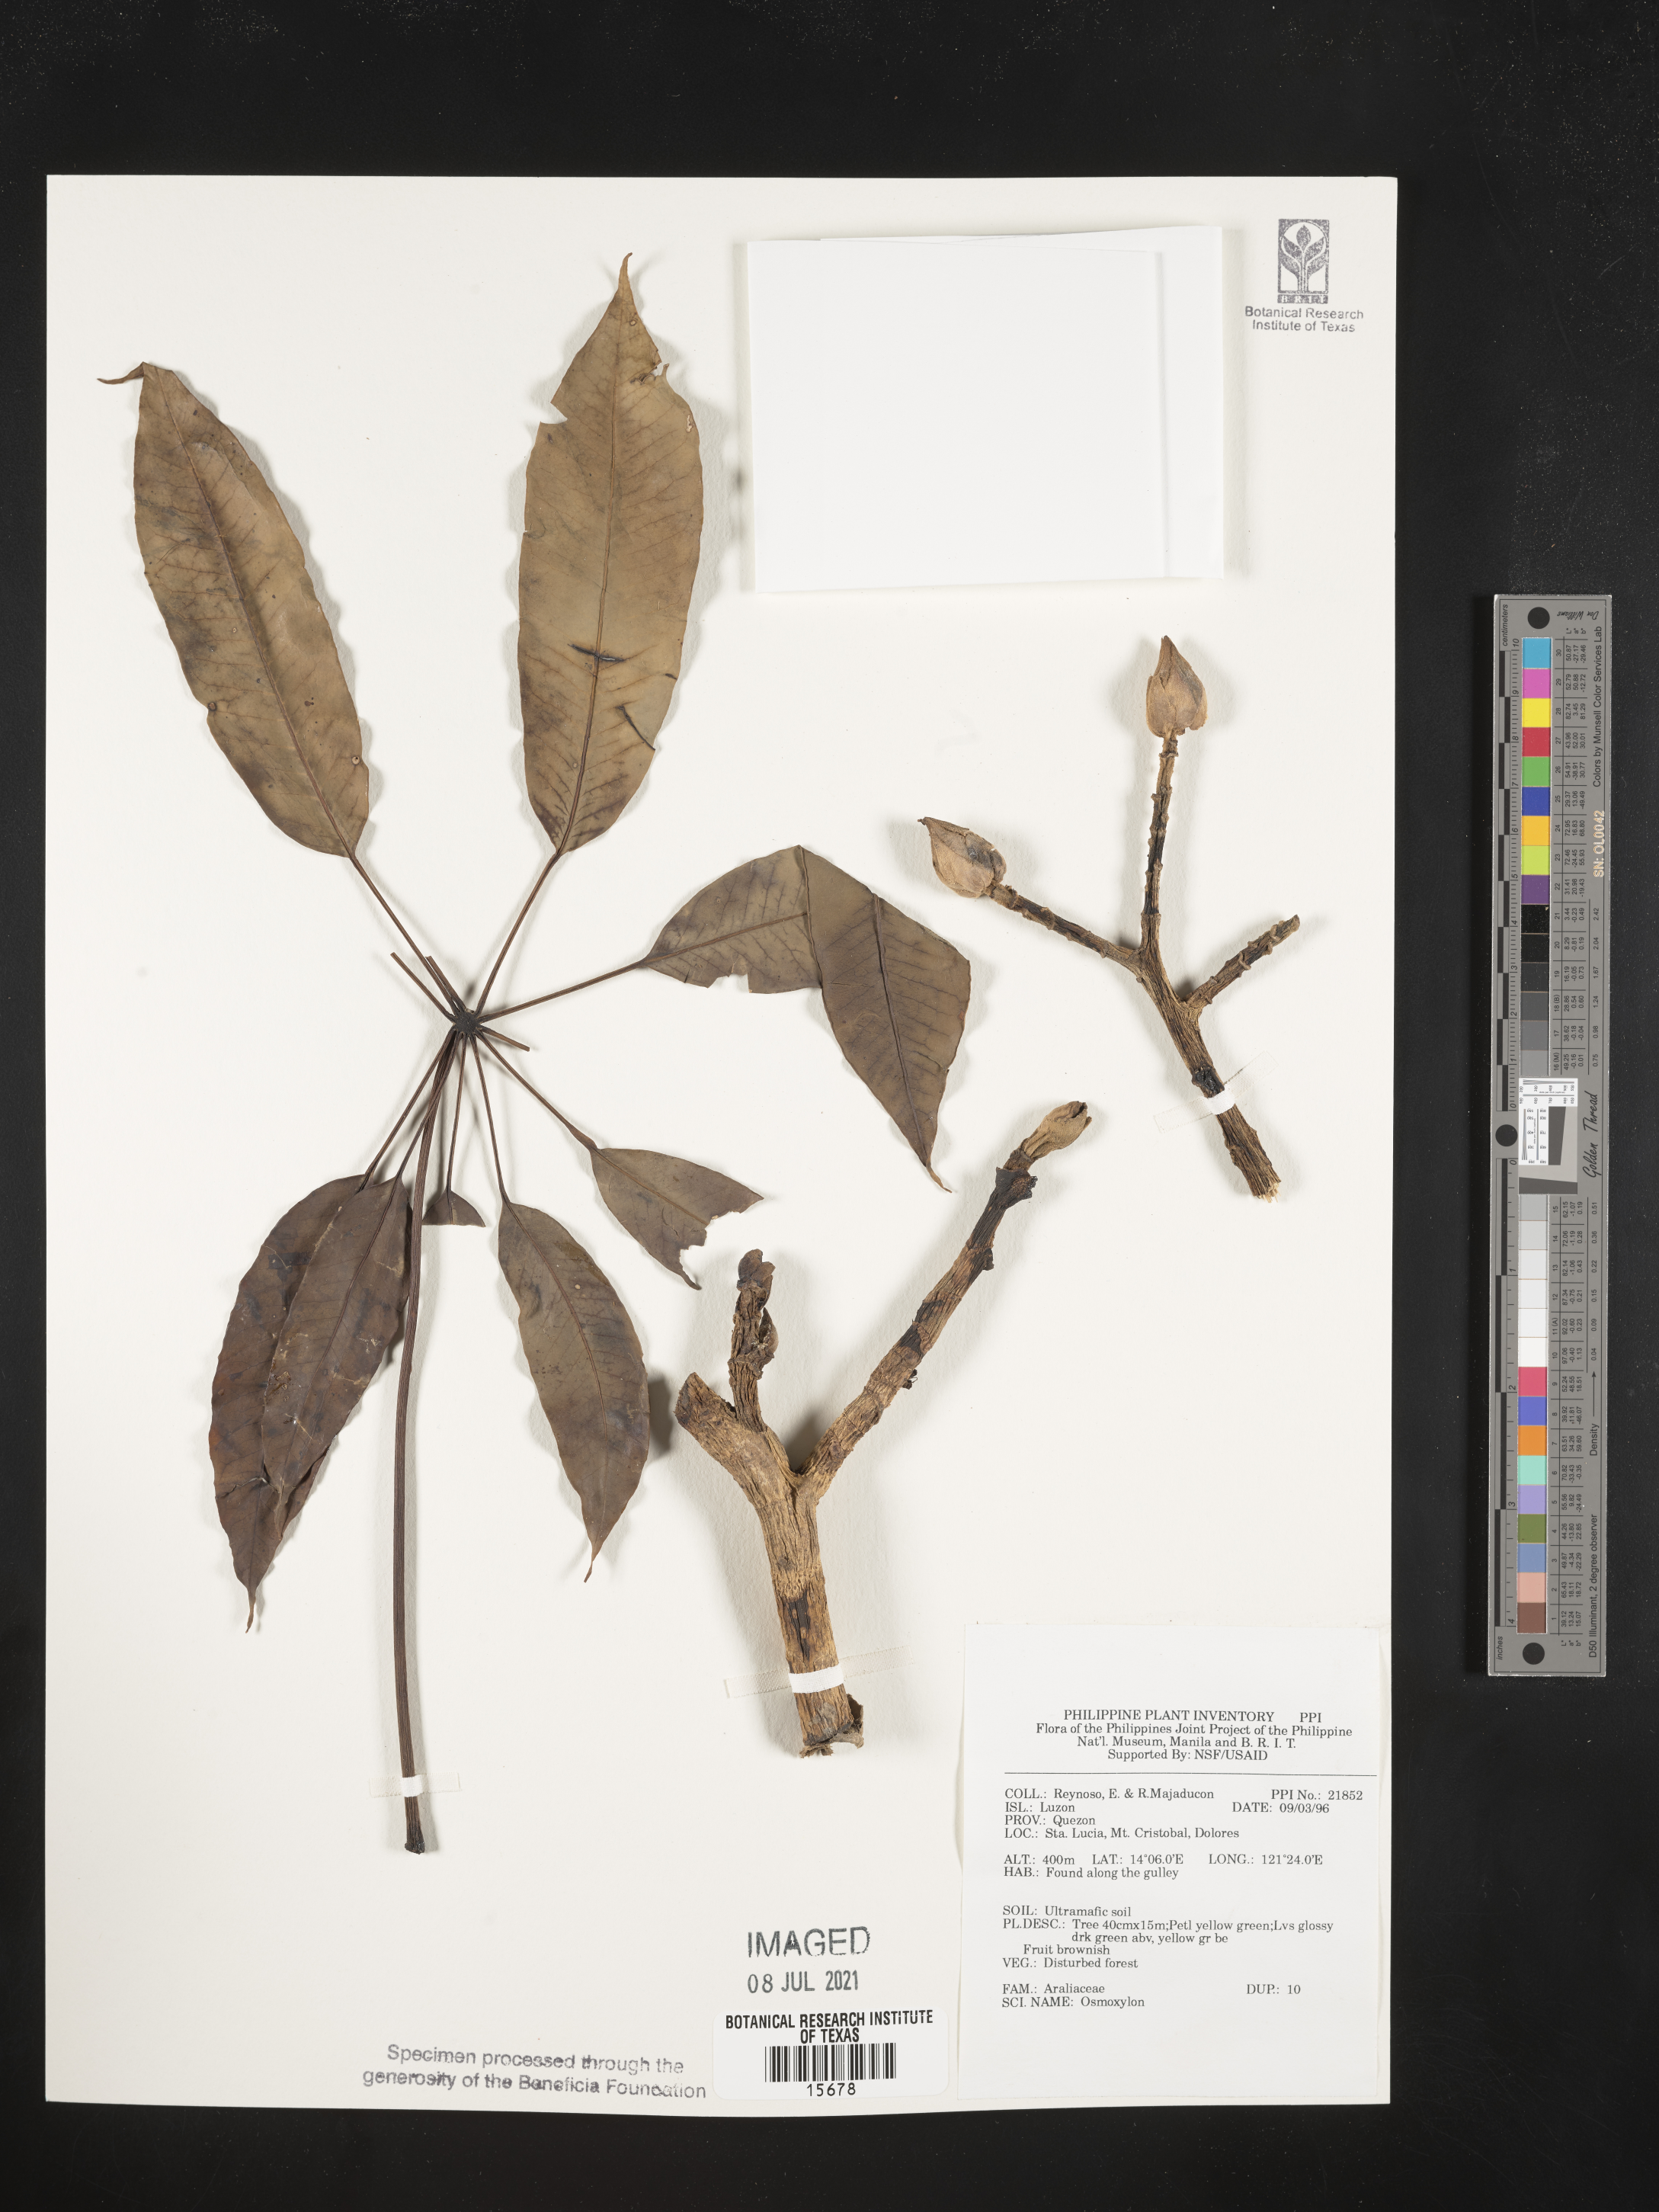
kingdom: Plantae
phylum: Tracheophyta
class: Magnoliopsida
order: Apiales
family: Araliaceae
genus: Osmoxylon
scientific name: Osmoxylon
